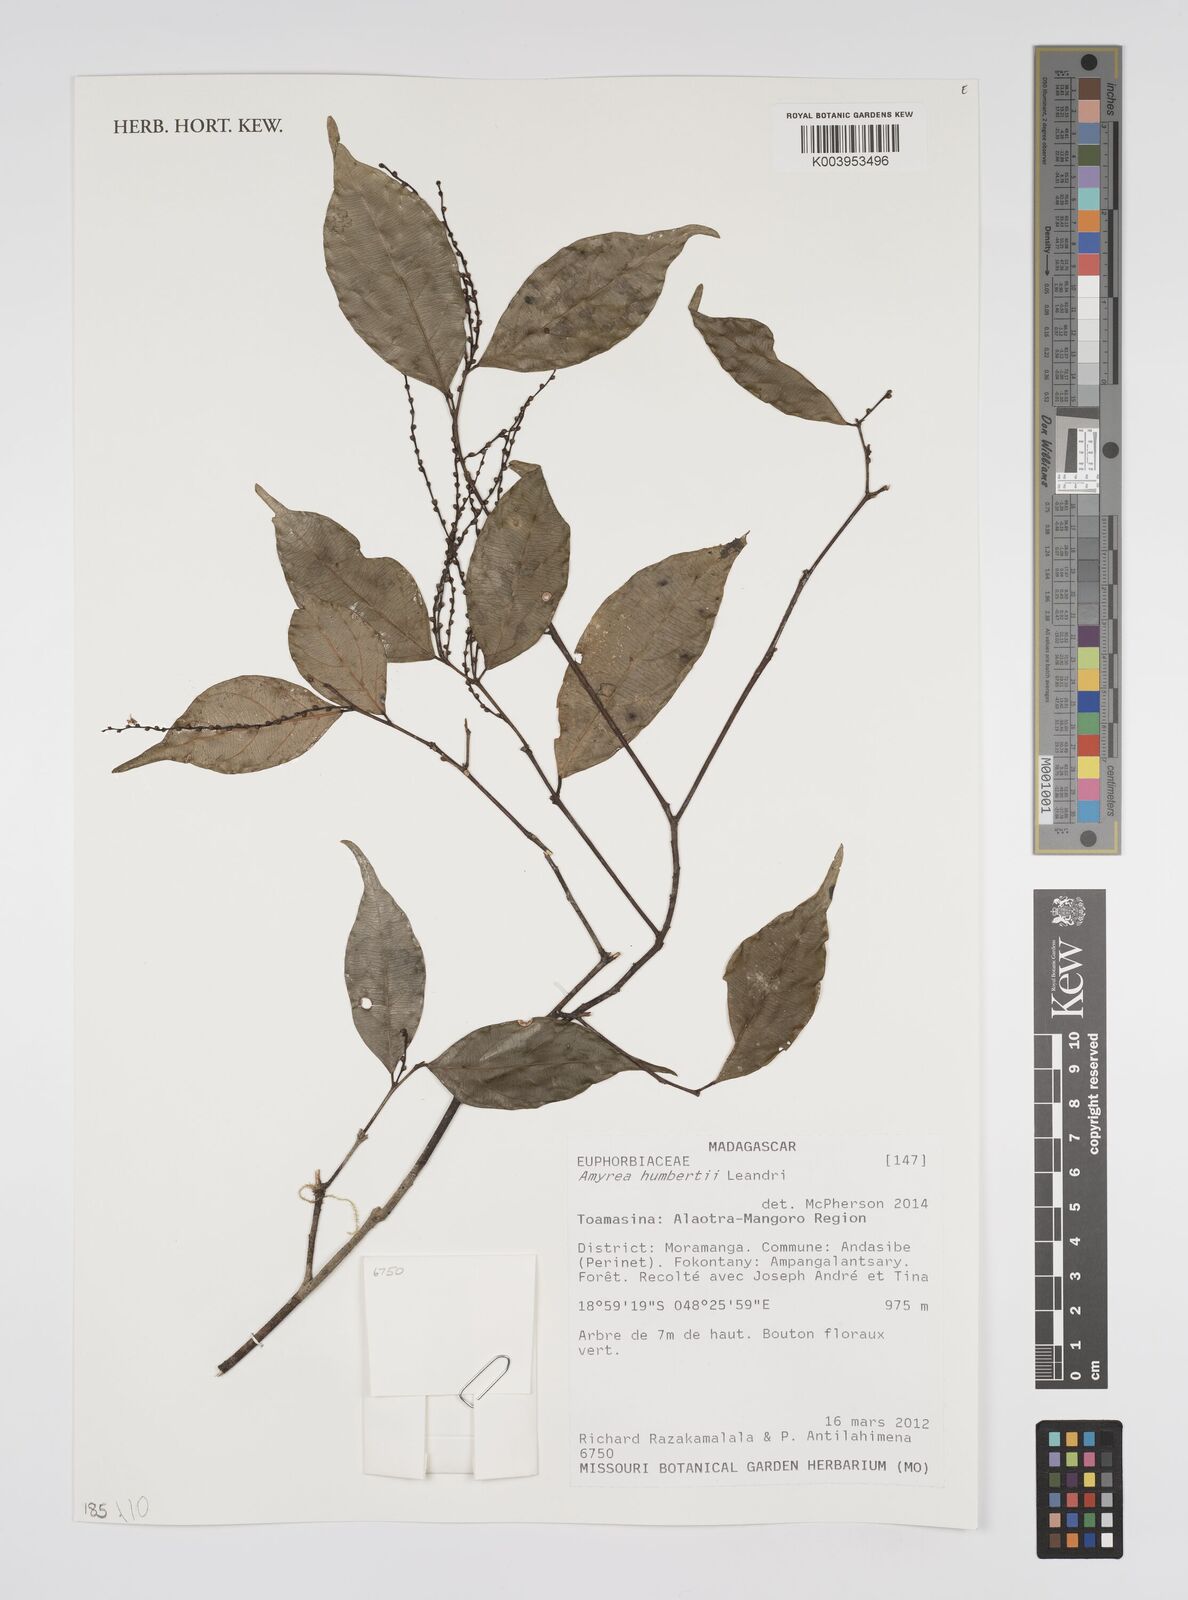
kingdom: Plantae
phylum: Tracheophyta
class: Magnoliopsida
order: Malpighiales
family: Euphorbiaceae
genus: Amyrea
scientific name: Amyrea humbertii
